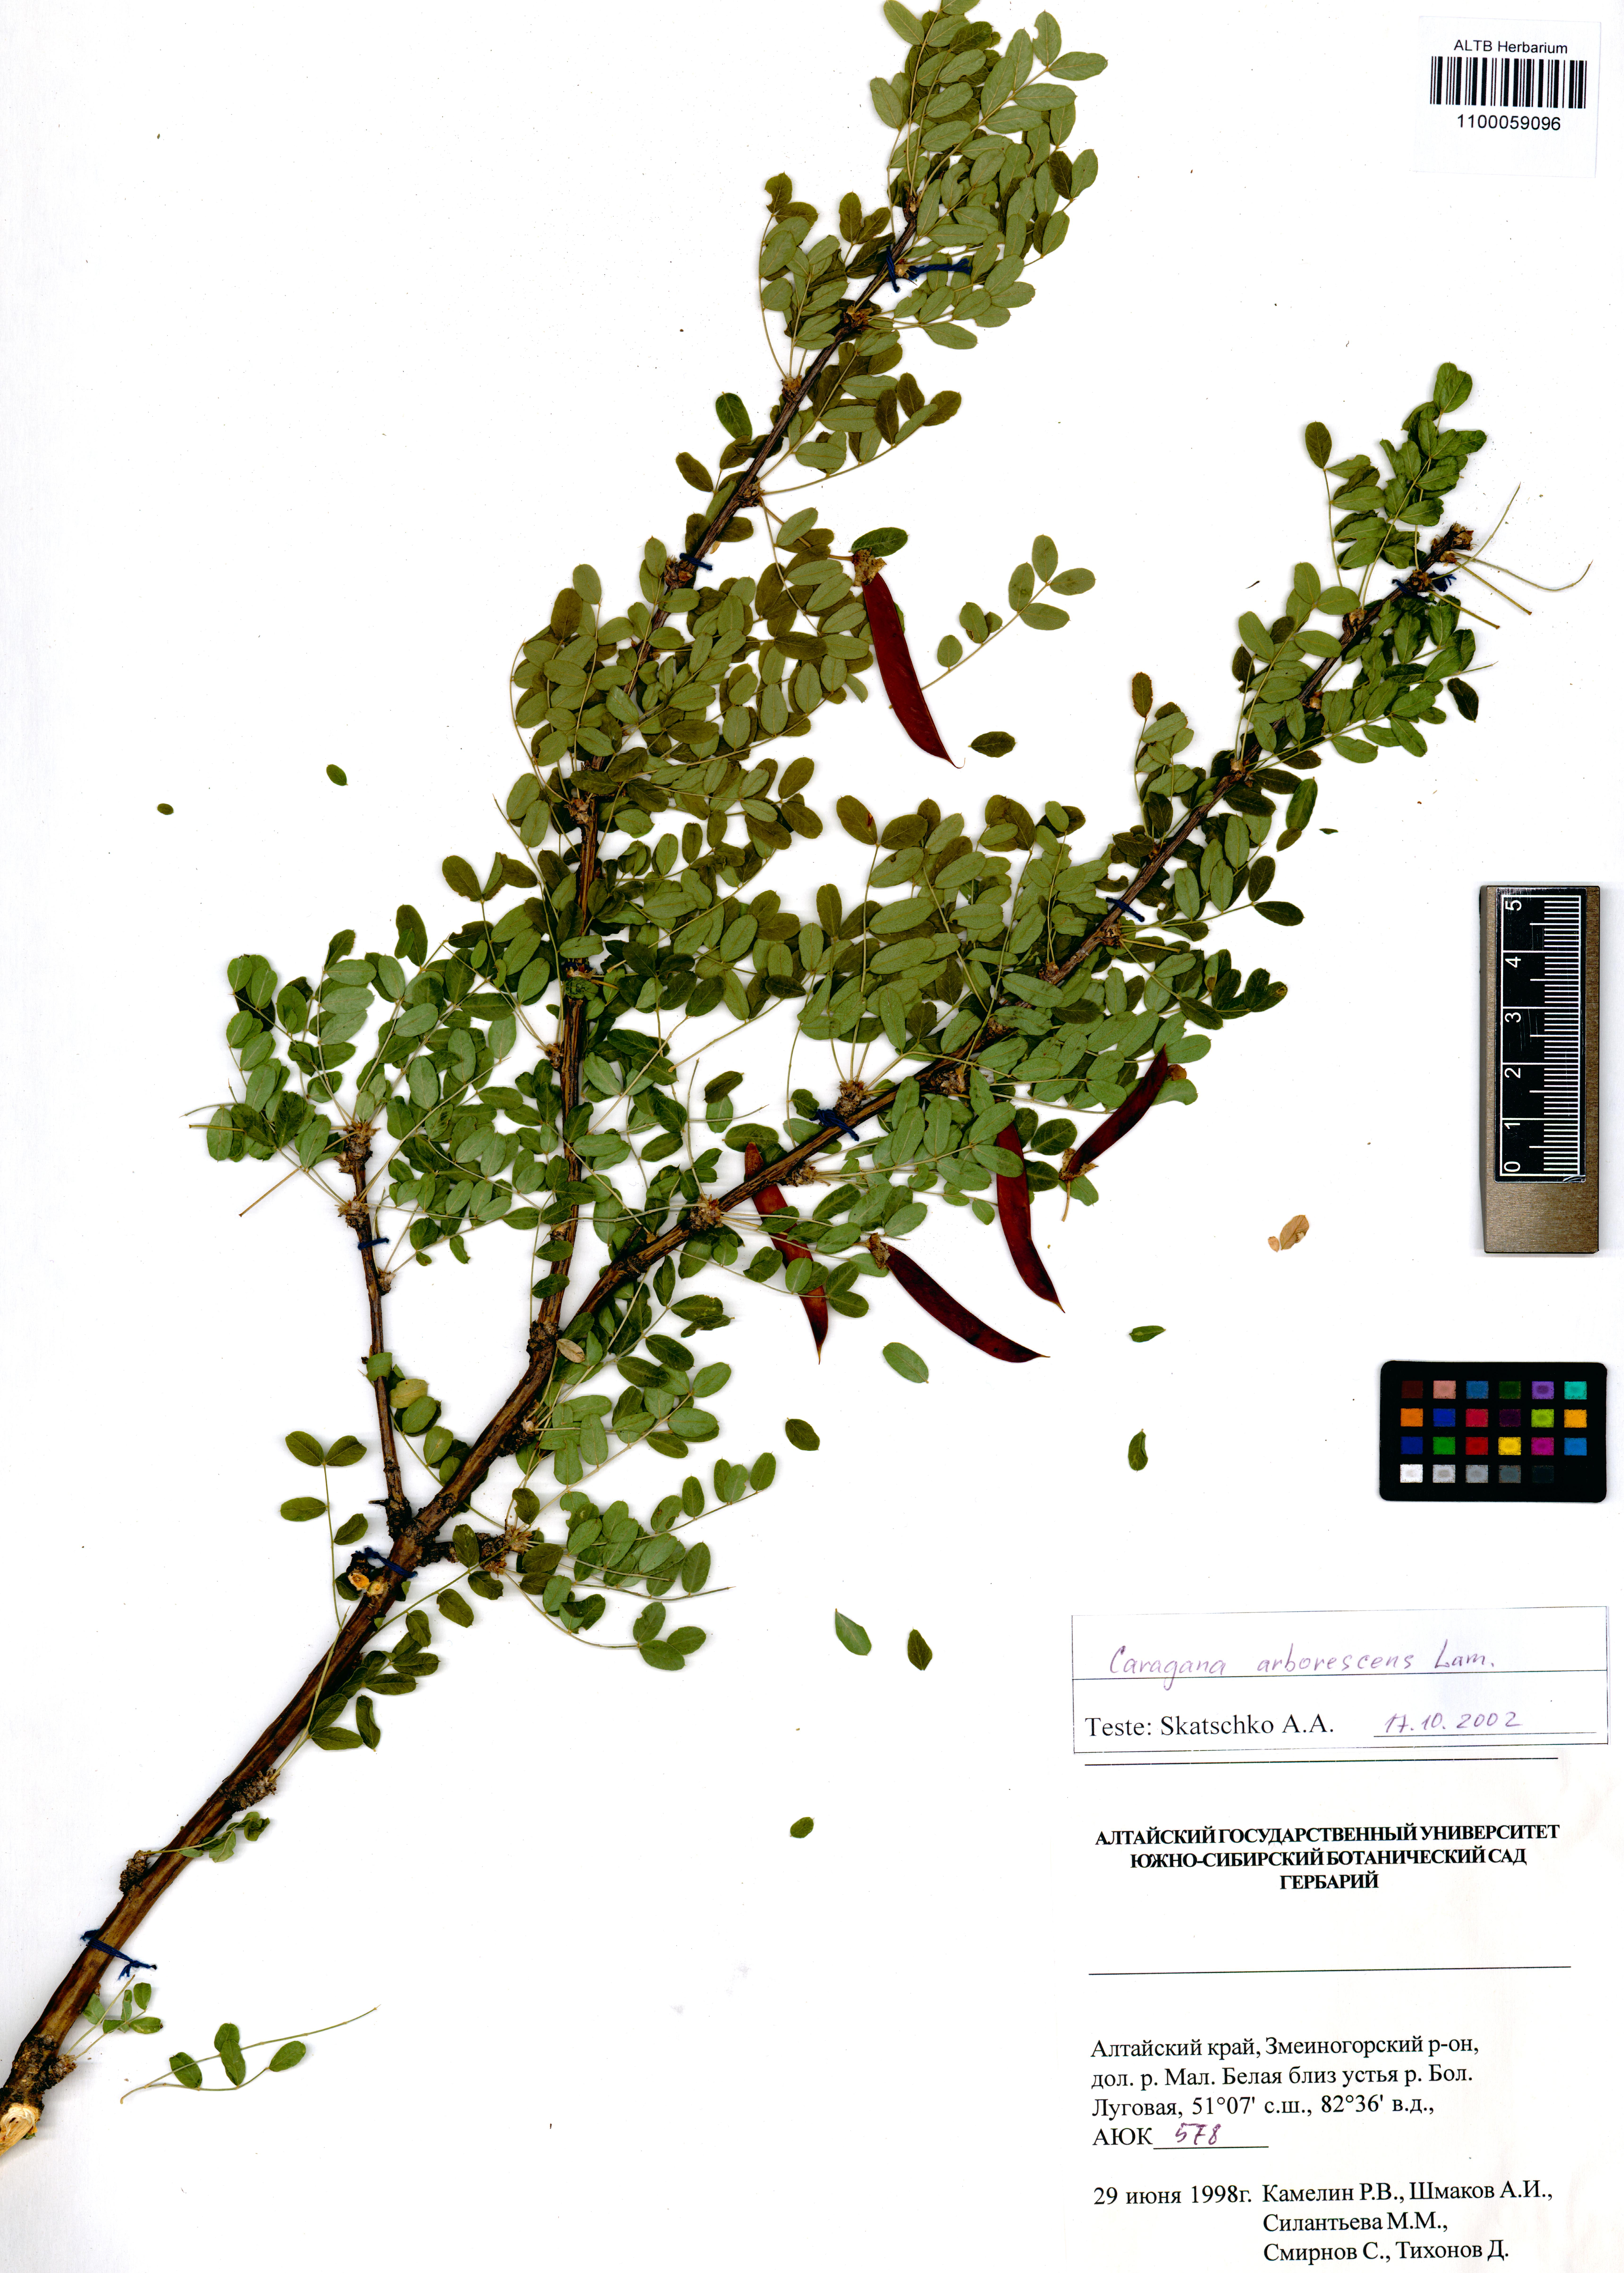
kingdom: Plantae
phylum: Tracheophyta
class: Magnoliopsida
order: Fabales
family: Fabaceae
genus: Caragana
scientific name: Caragana arborescens
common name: Siberian peashrub
